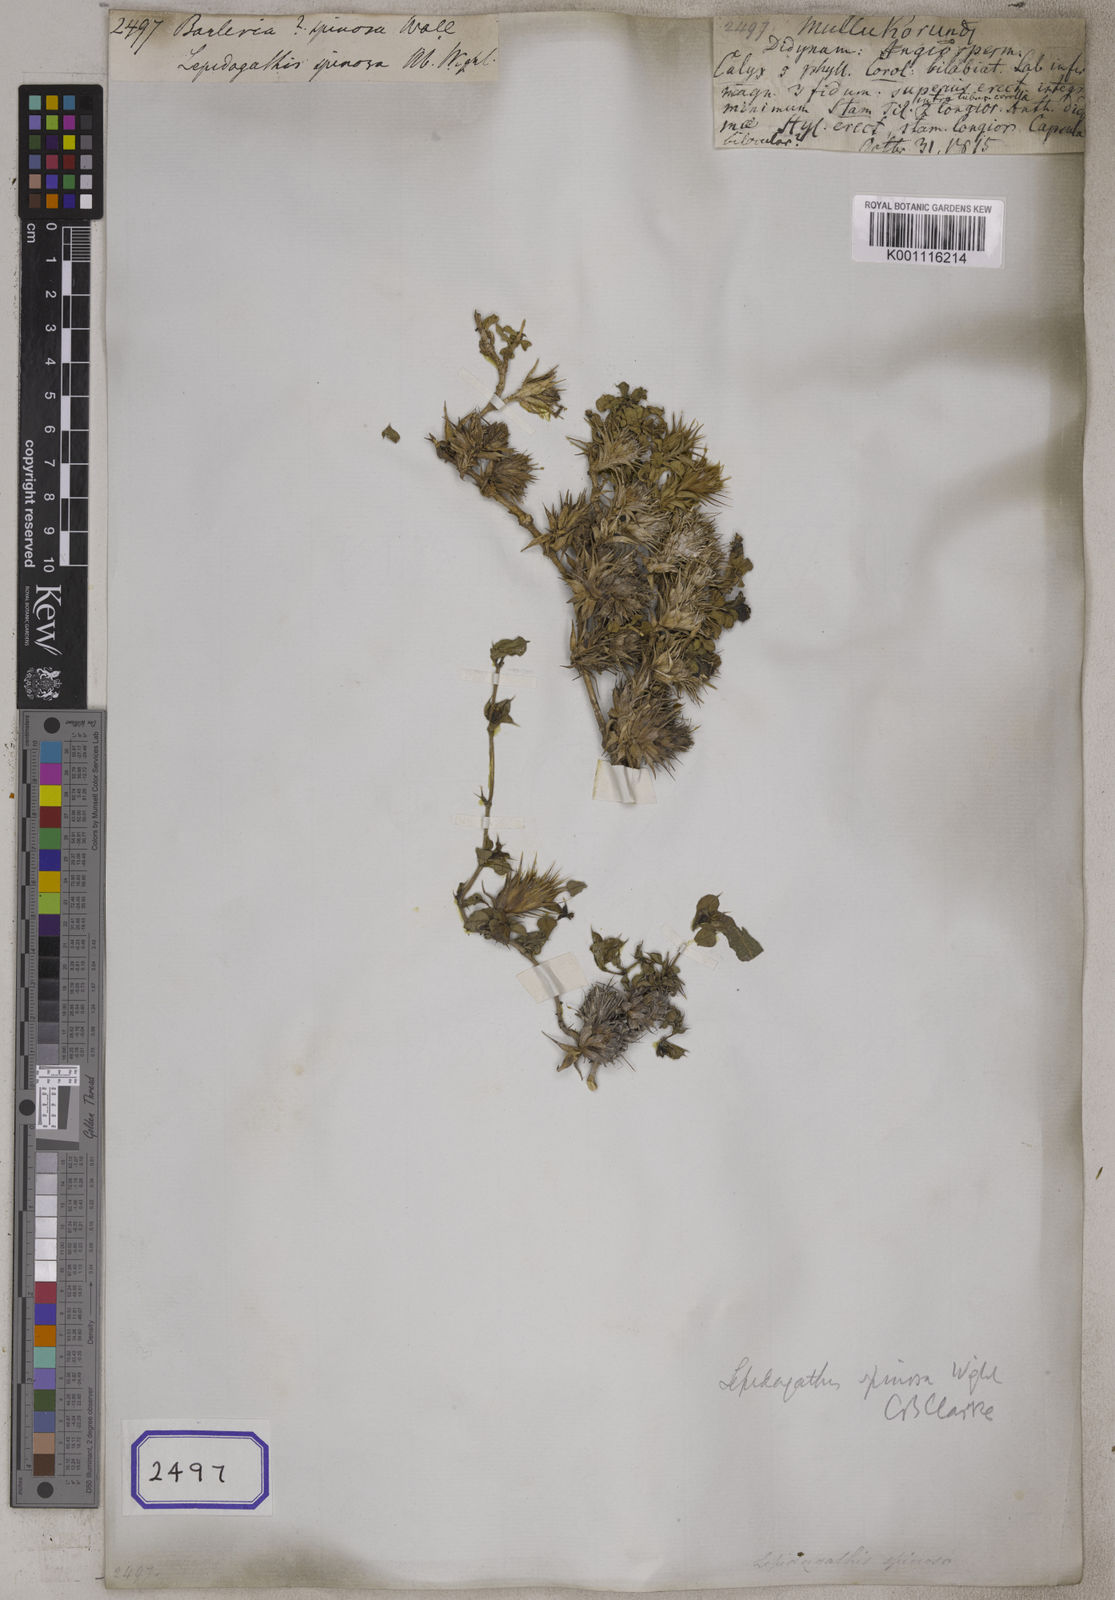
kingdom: Plantae
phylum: Tracheophyta
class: Magnoliopsida
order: Lamiales
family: Acanthaceae
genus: Barleria
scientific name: Barleria
